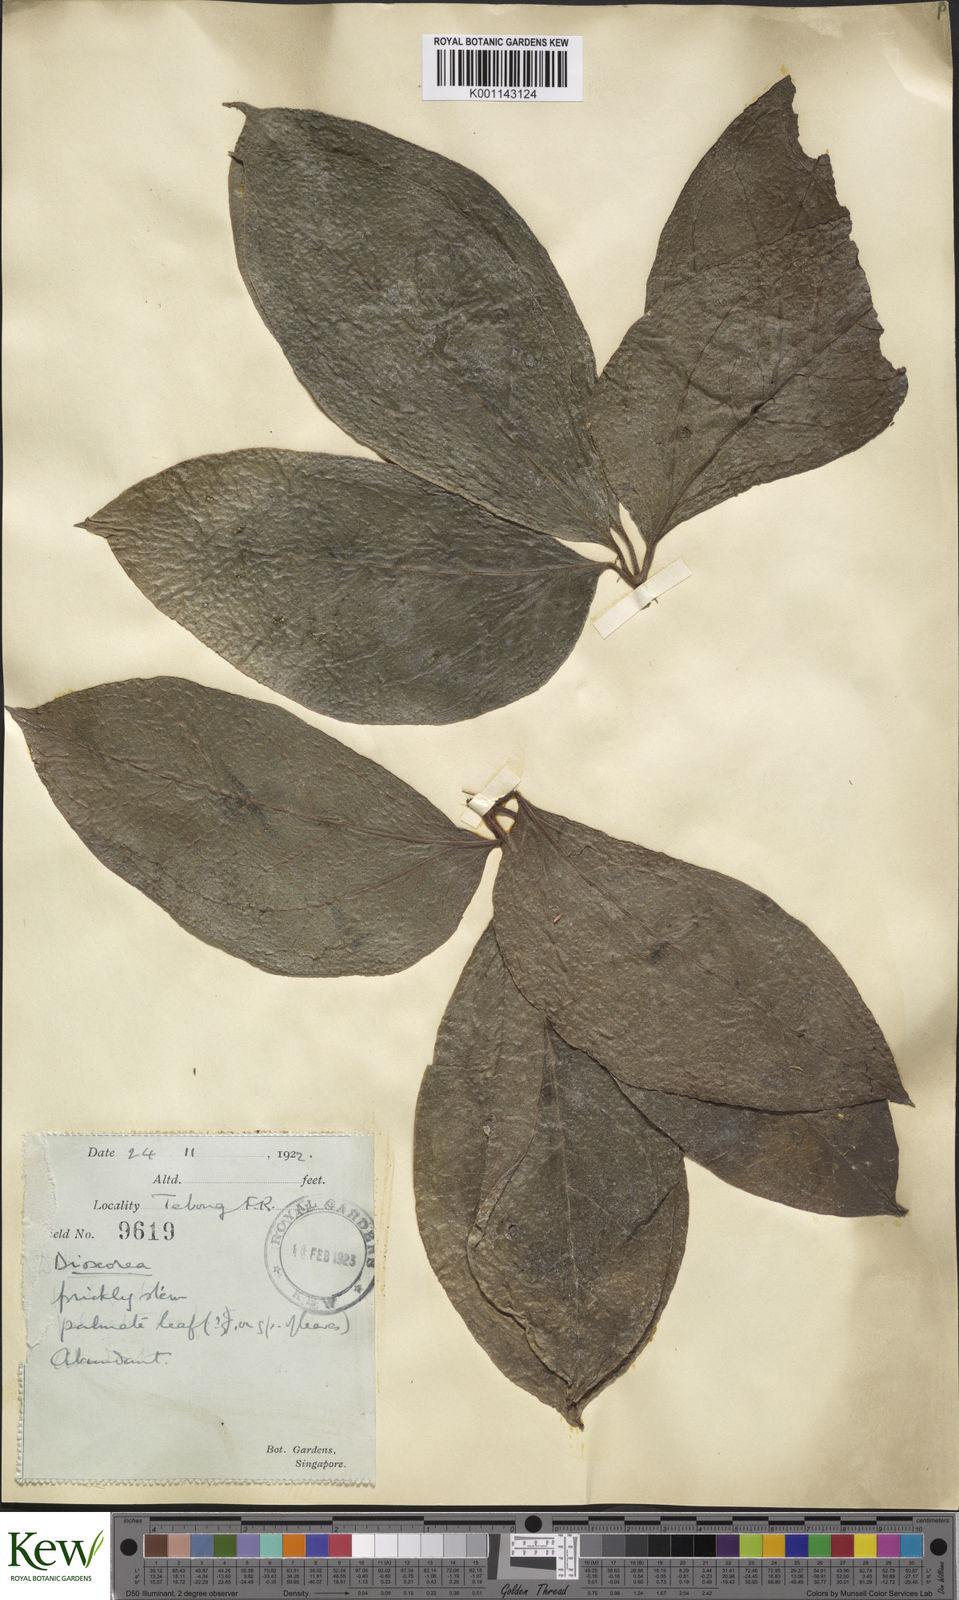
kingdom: Plantae
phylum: Tracheophyta
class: Liliopsida
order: Dioscoreales
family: Dioscoreaceae
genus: Dioscorea
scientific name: Dioscorea pentaphylla
